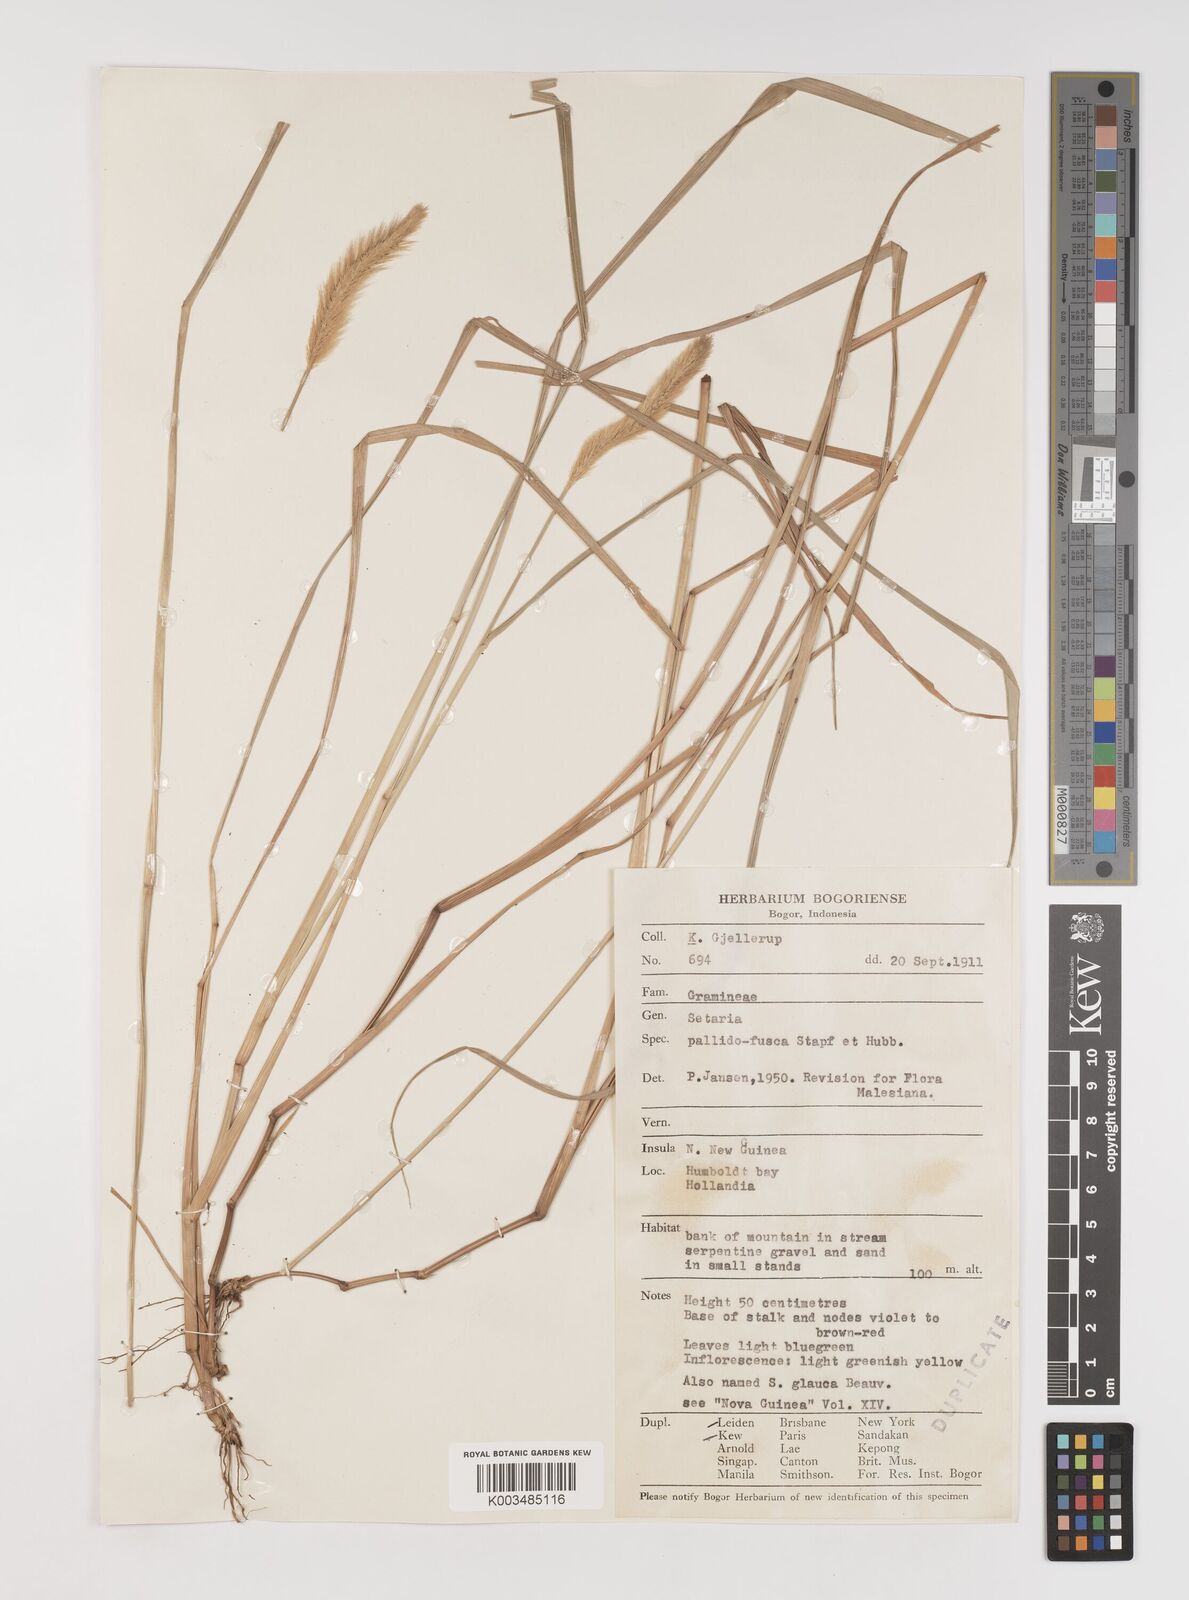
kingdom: Plantae
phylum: Tracheophyta
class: Liliopsida
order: Poales
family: Poaceae
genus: Setaria
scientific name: Setaria parviflora
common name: Knotroot bristle-grass
